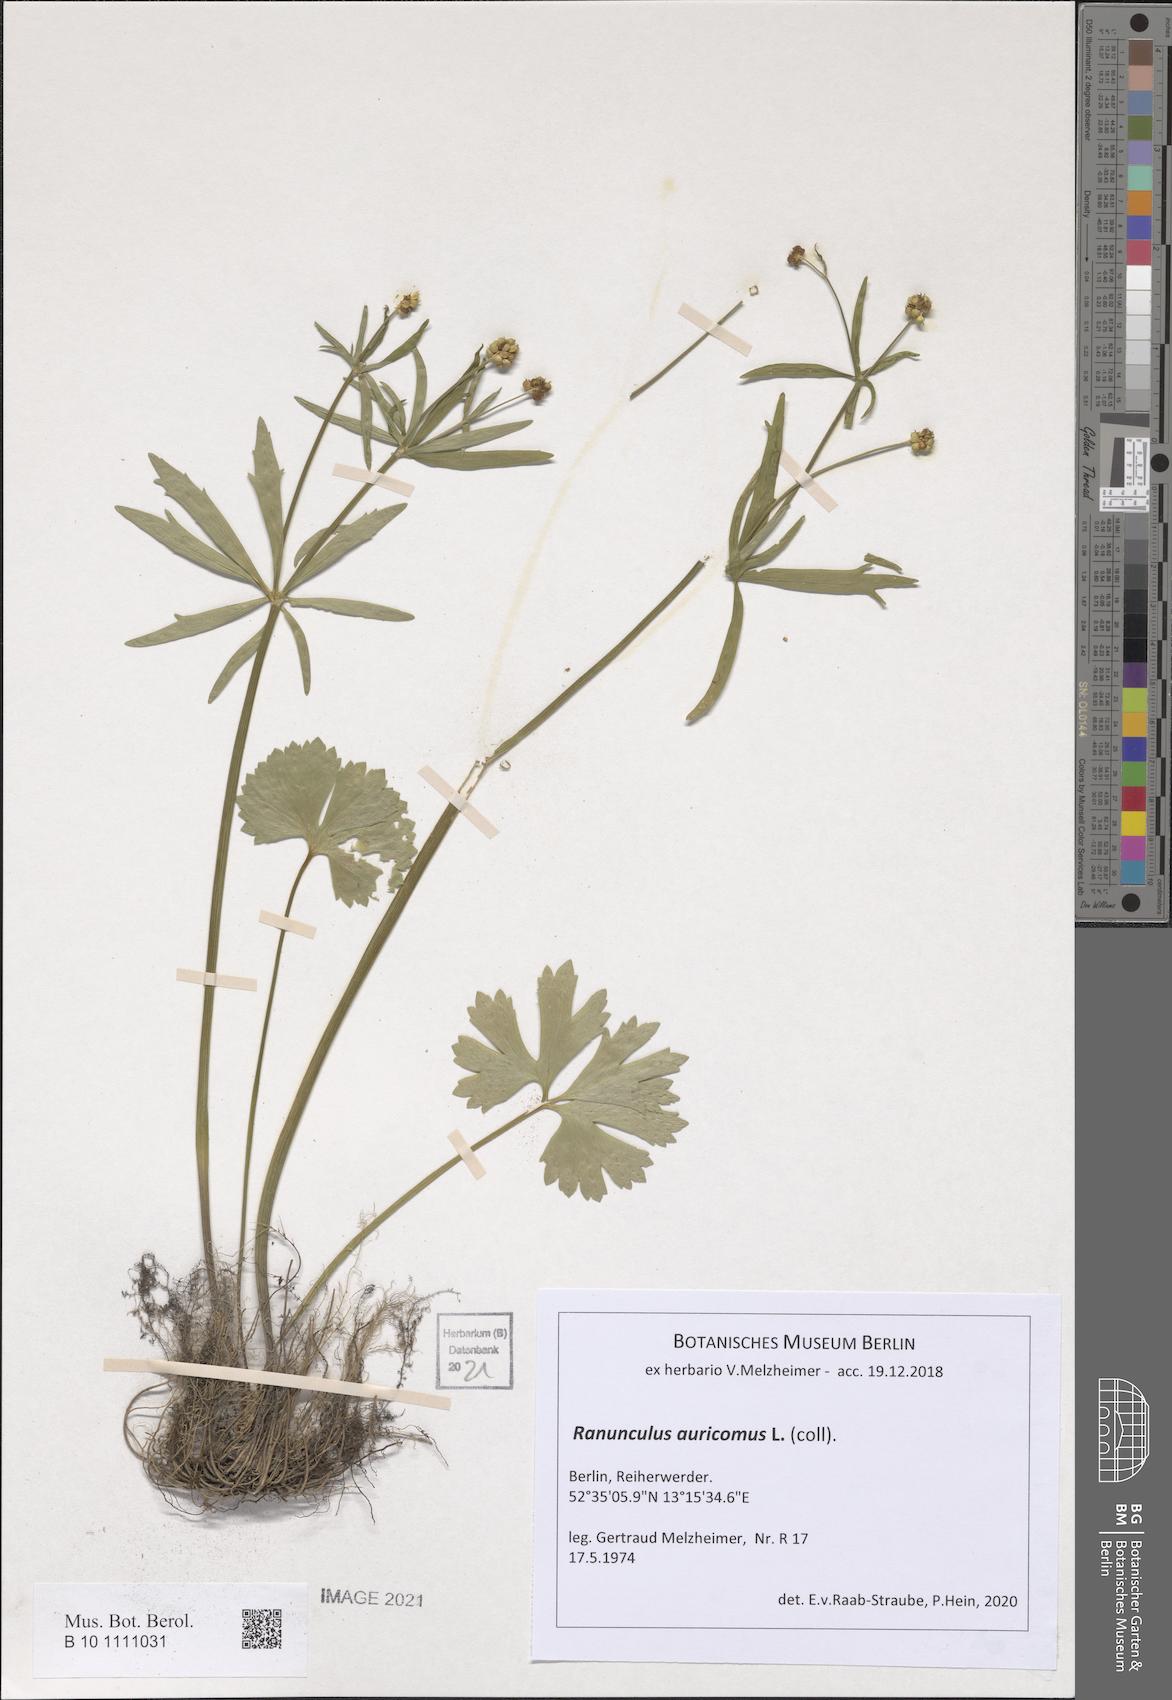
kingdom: Plantae
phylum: Tracheophyta
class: Magnoliopsida
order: Ranunculales
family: Ranunculaceae
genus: Ranunculus
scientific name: Ranunculus auricomus
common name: Goldilocks buttercup
